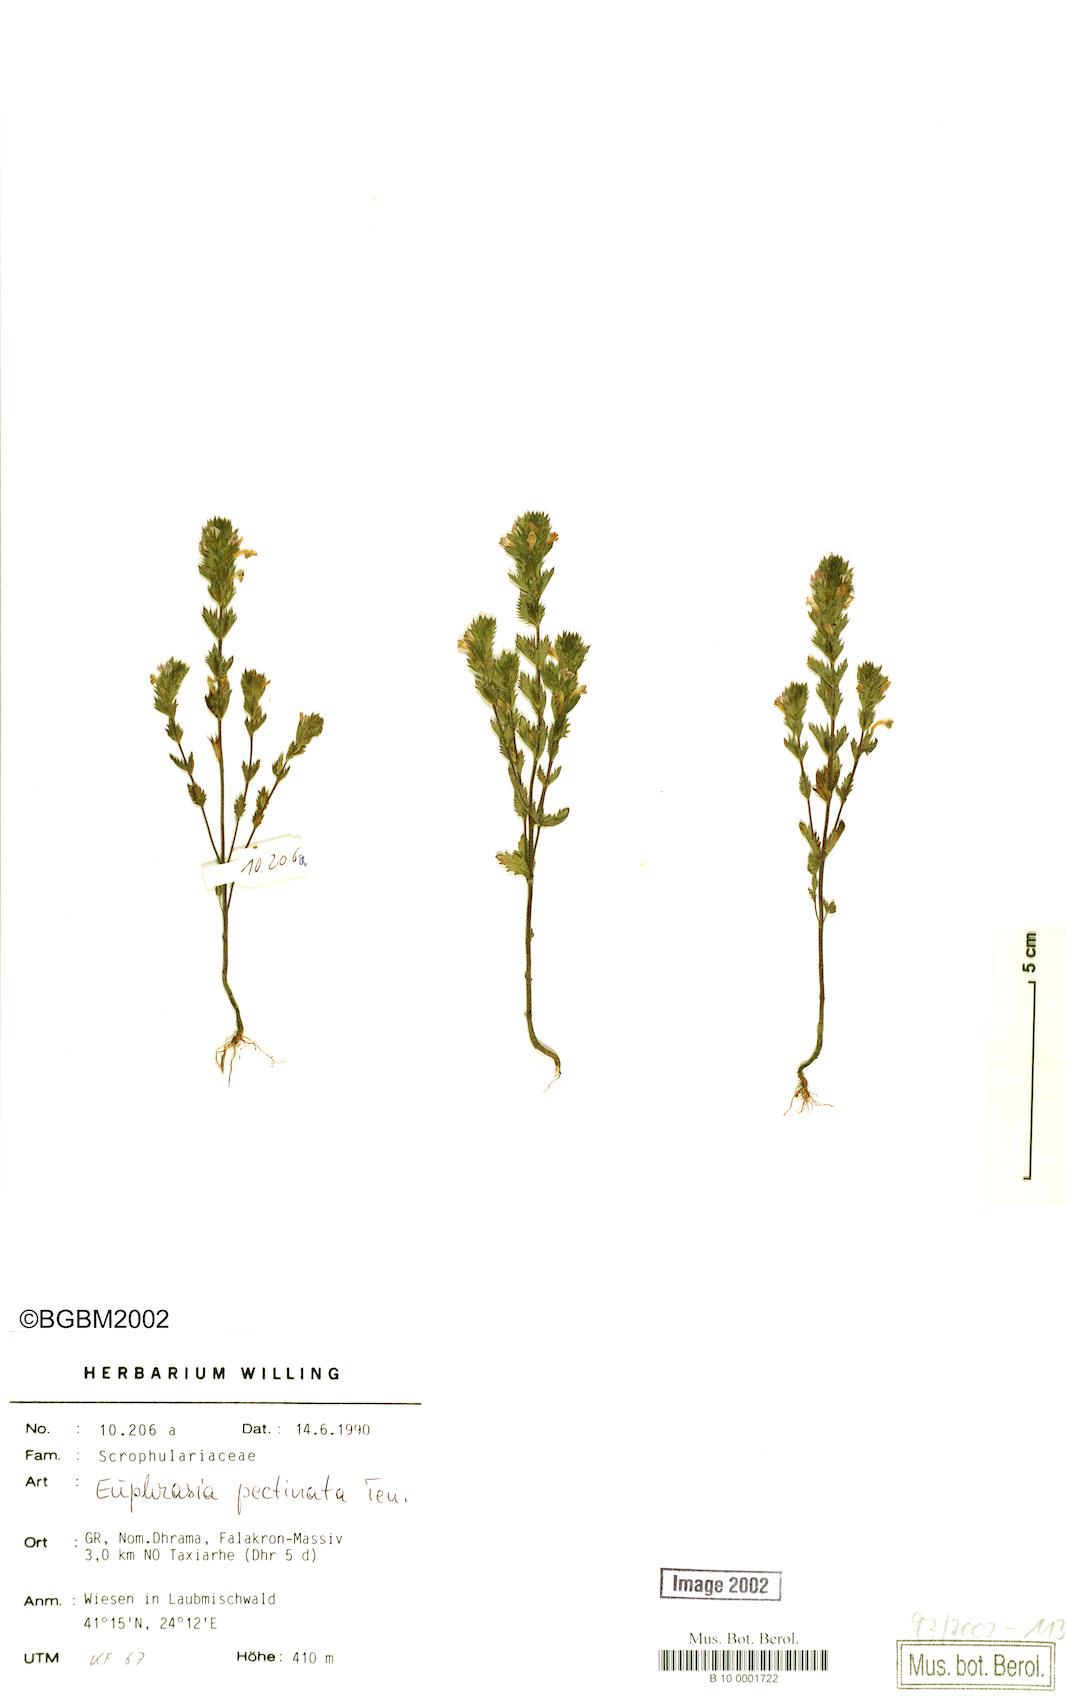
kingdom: Plantae
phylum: Tracheophyta
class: Magnoliopsida
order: Lamiales
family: Orobanchaceae
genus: Euphrasia
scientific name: Euphrasia pectinata
